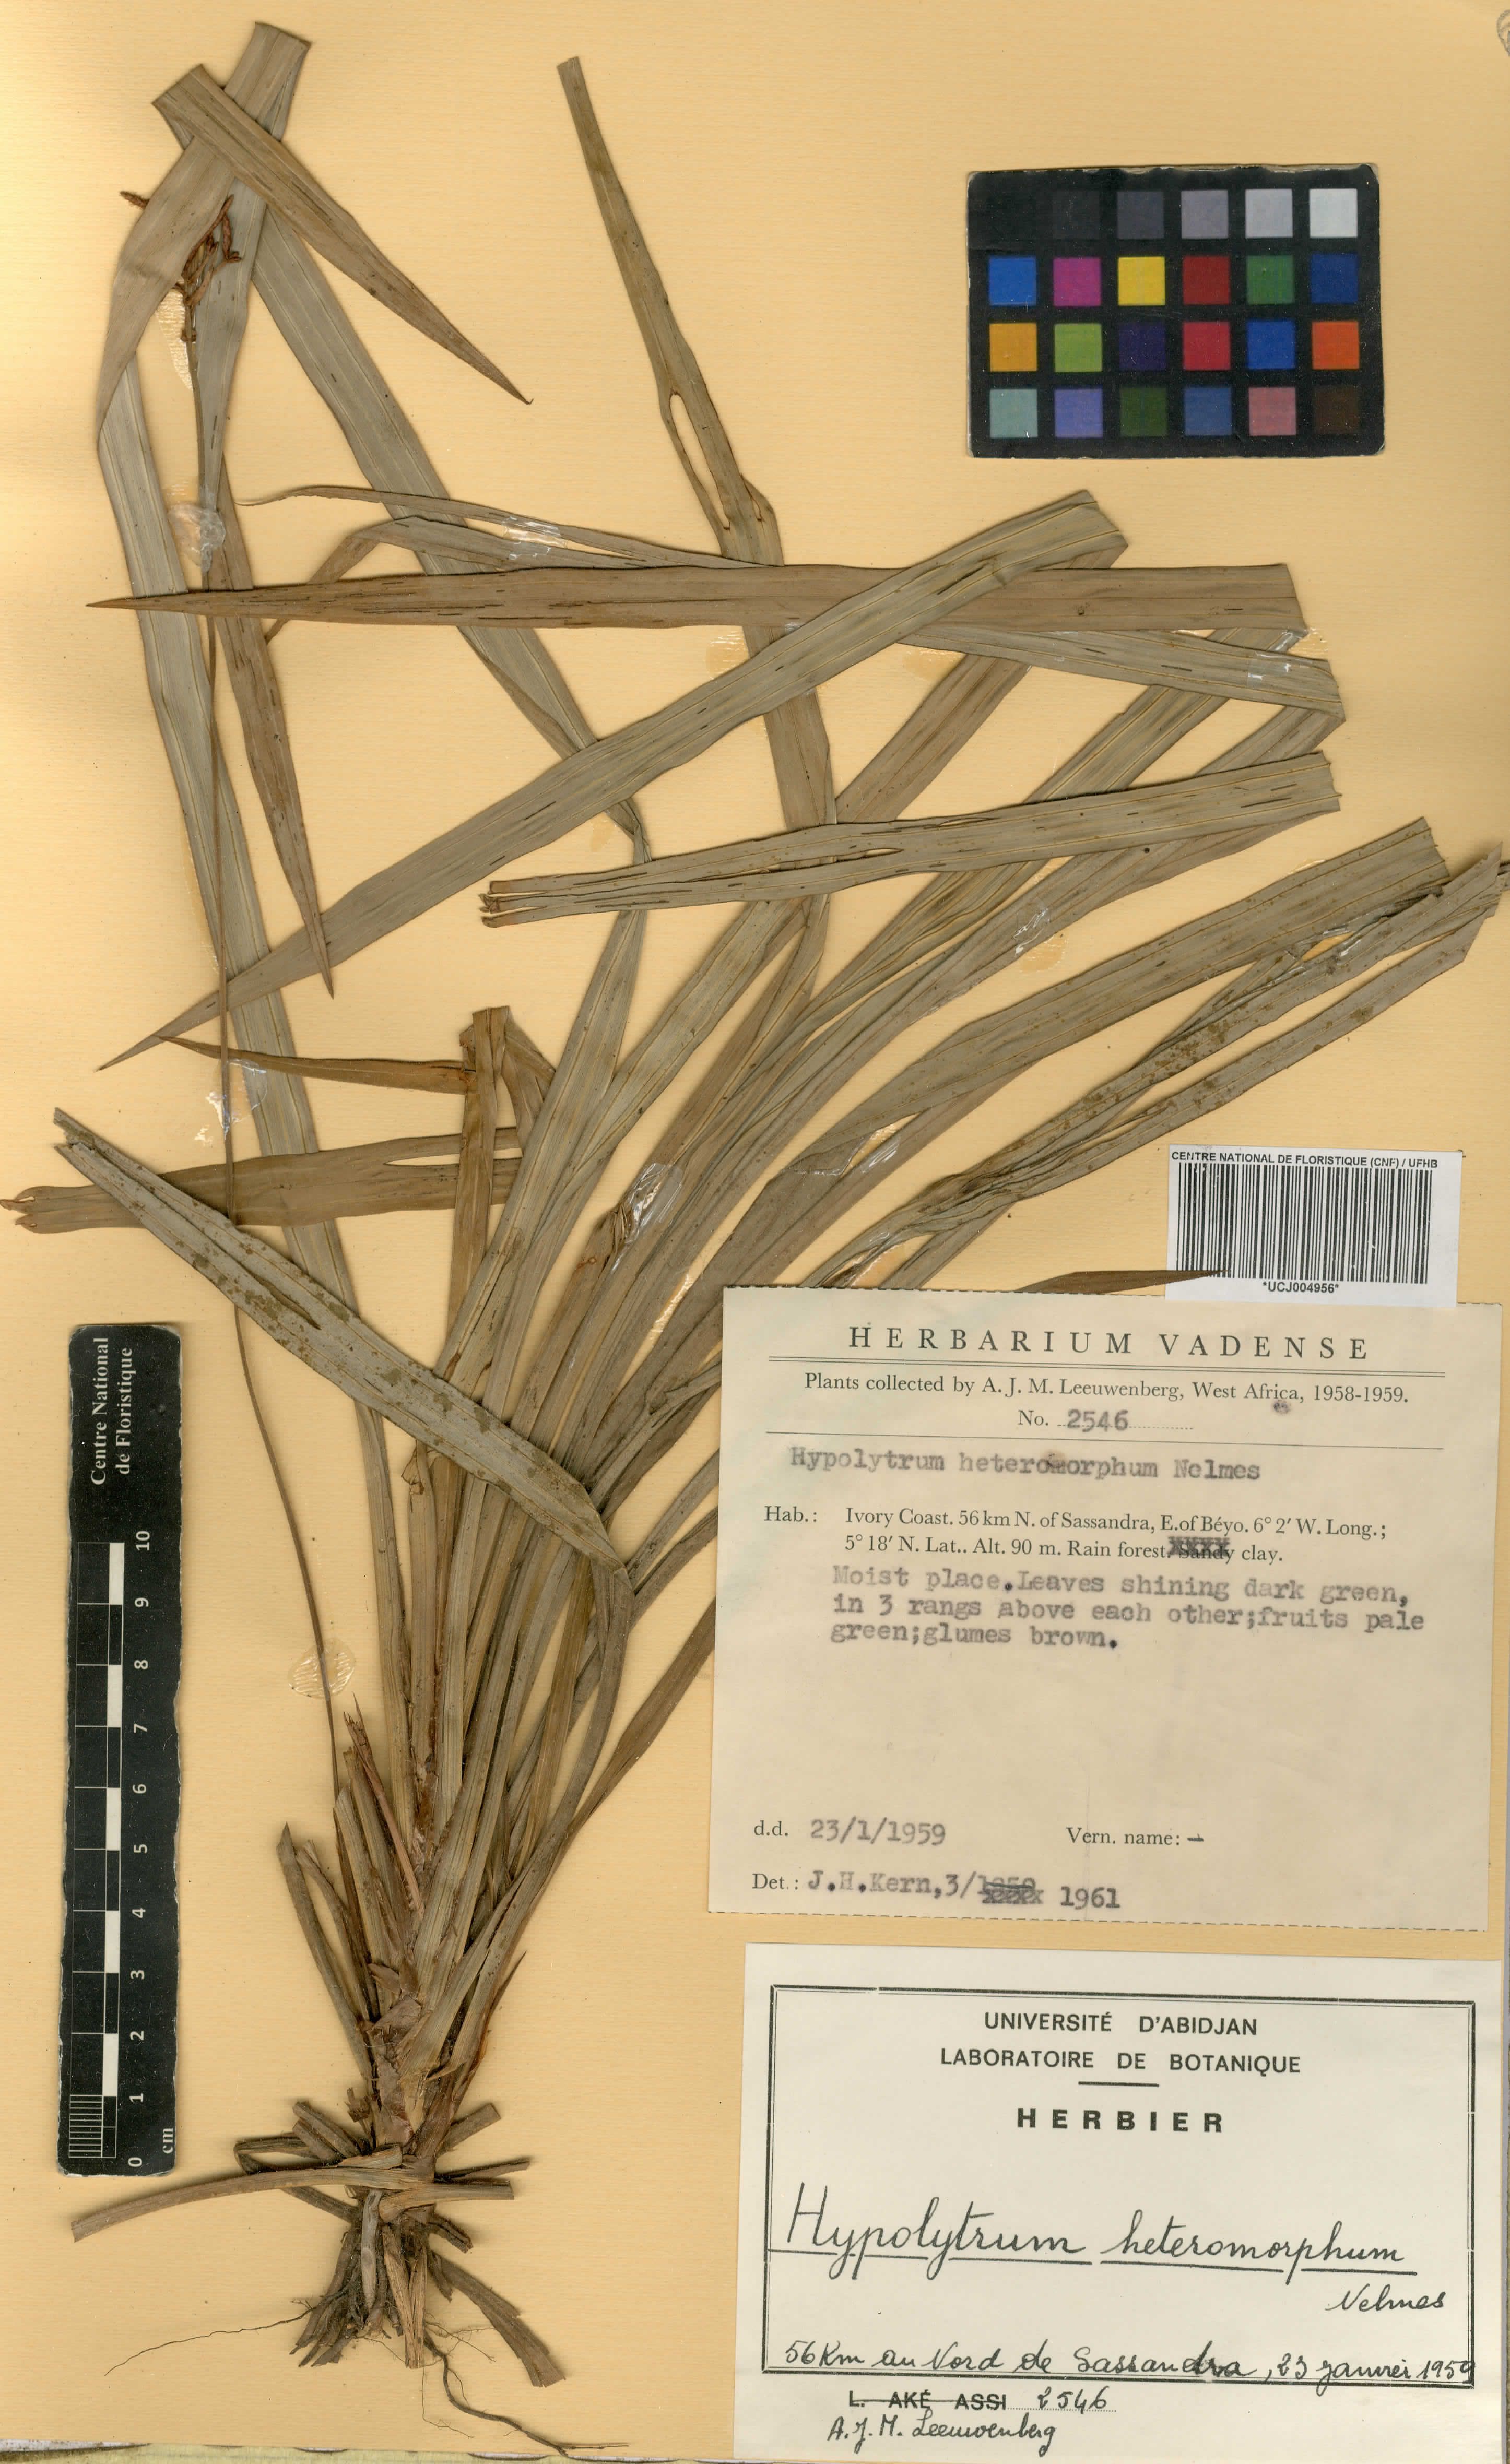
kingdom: Plantae
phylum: Tracheophyta
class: Liliopsida
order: Poales
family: Cyperaceae
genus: Hypolytrum
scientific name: Hypolytrum heteromorphum
